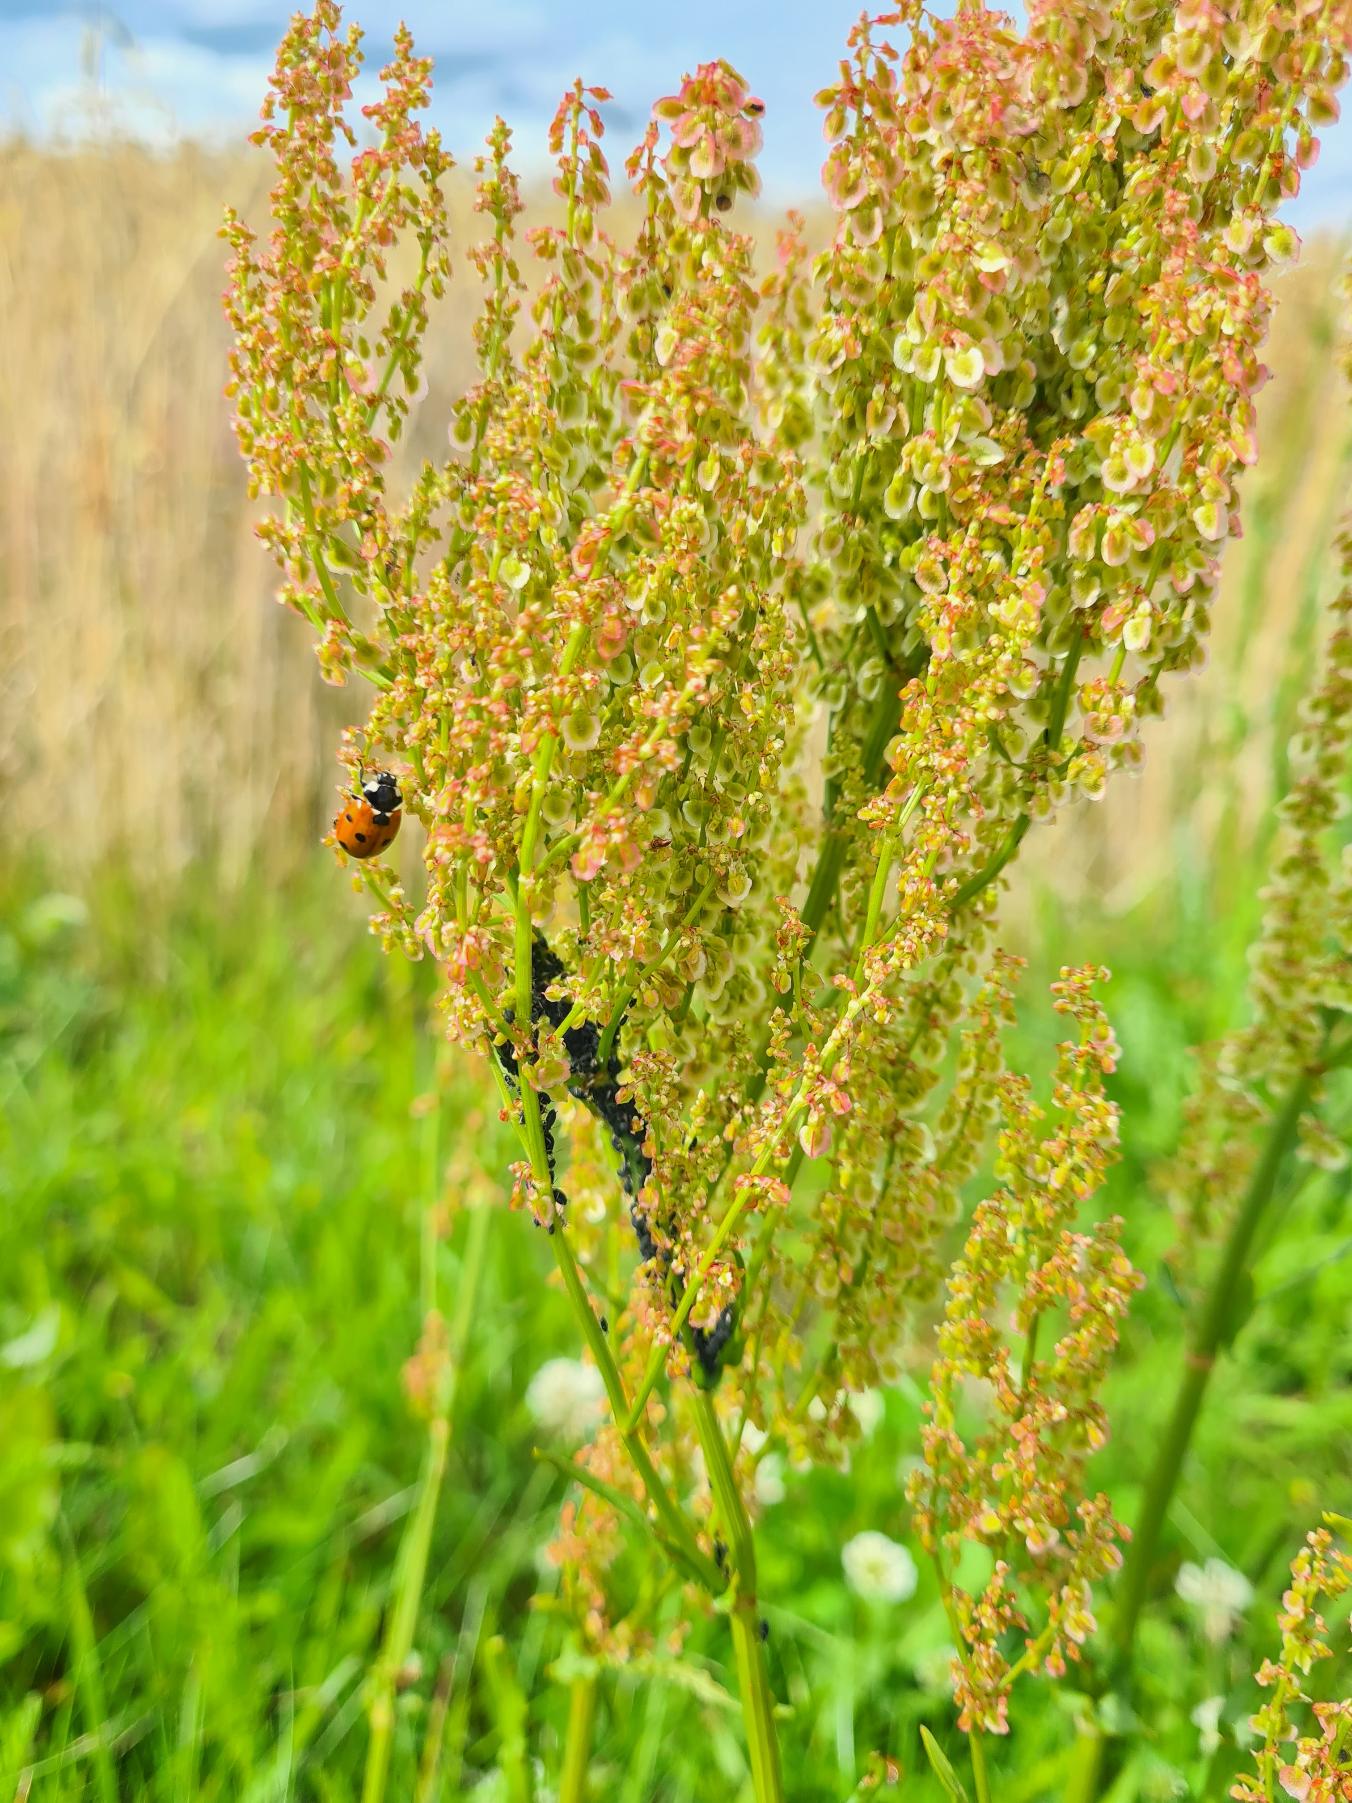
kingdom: Plantae
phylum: Tracheophyta
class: Magnoliopsida
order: Caryophyllales
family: Polygonaceae
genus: Rumex
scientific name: Rumex thyrsiflorus
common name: Dusk-syre
